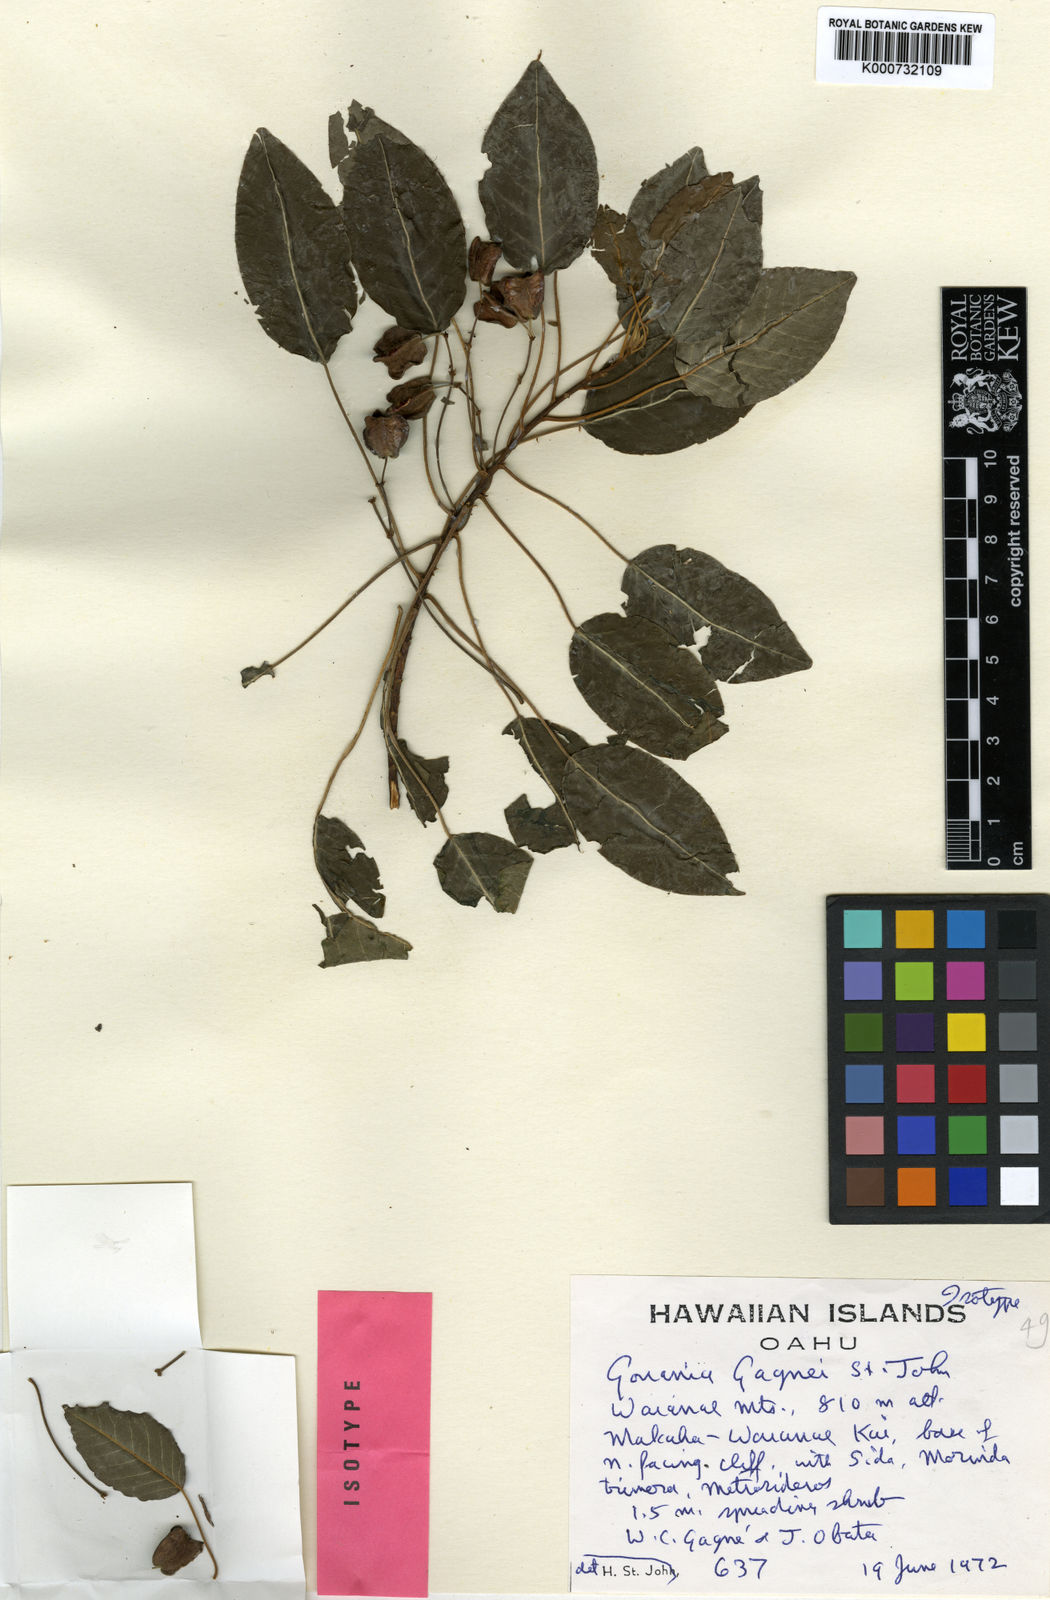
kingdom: Plantae
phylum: Tracheophyta
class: Magnoliopsida
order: Rosales
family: Rhamnaceae
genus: Gouania
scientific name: Gouania meyenii
